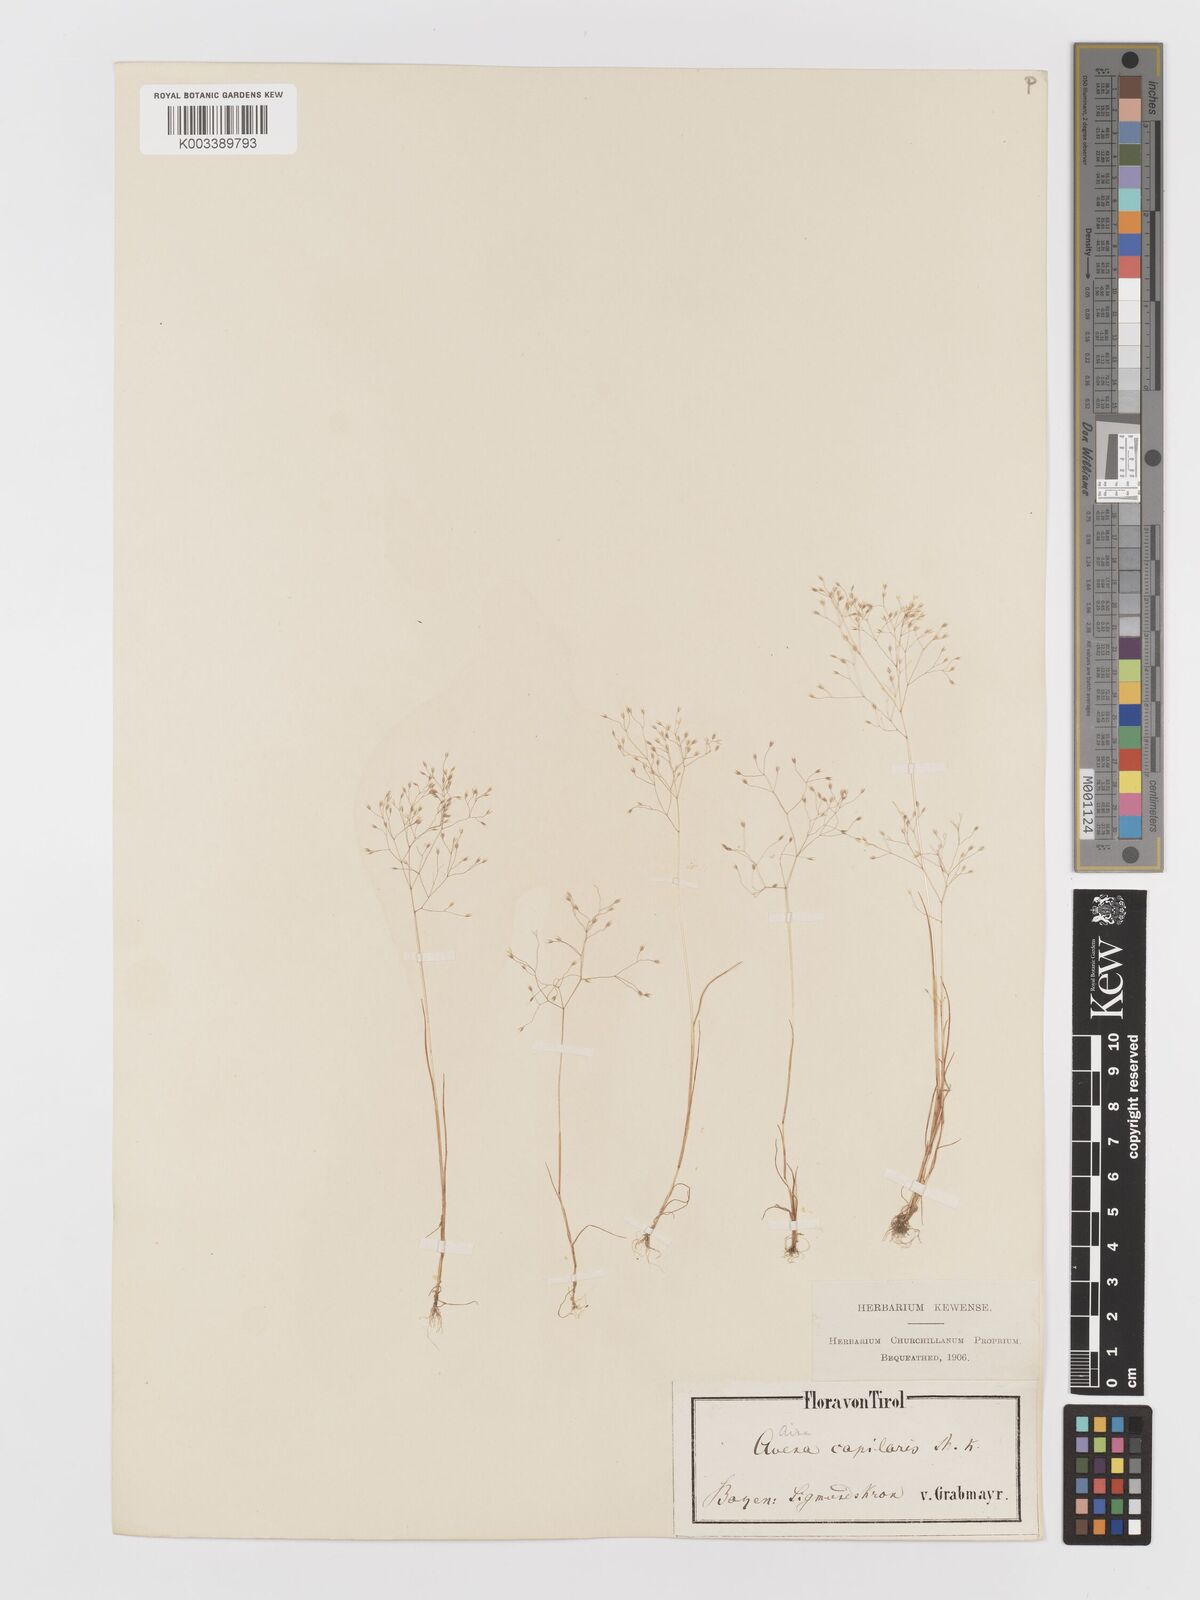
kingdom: Plantae
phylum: Tracheophyta
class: Liliopsida
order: Poales
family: Poaceae
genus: Aira
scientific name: Aira elegans
